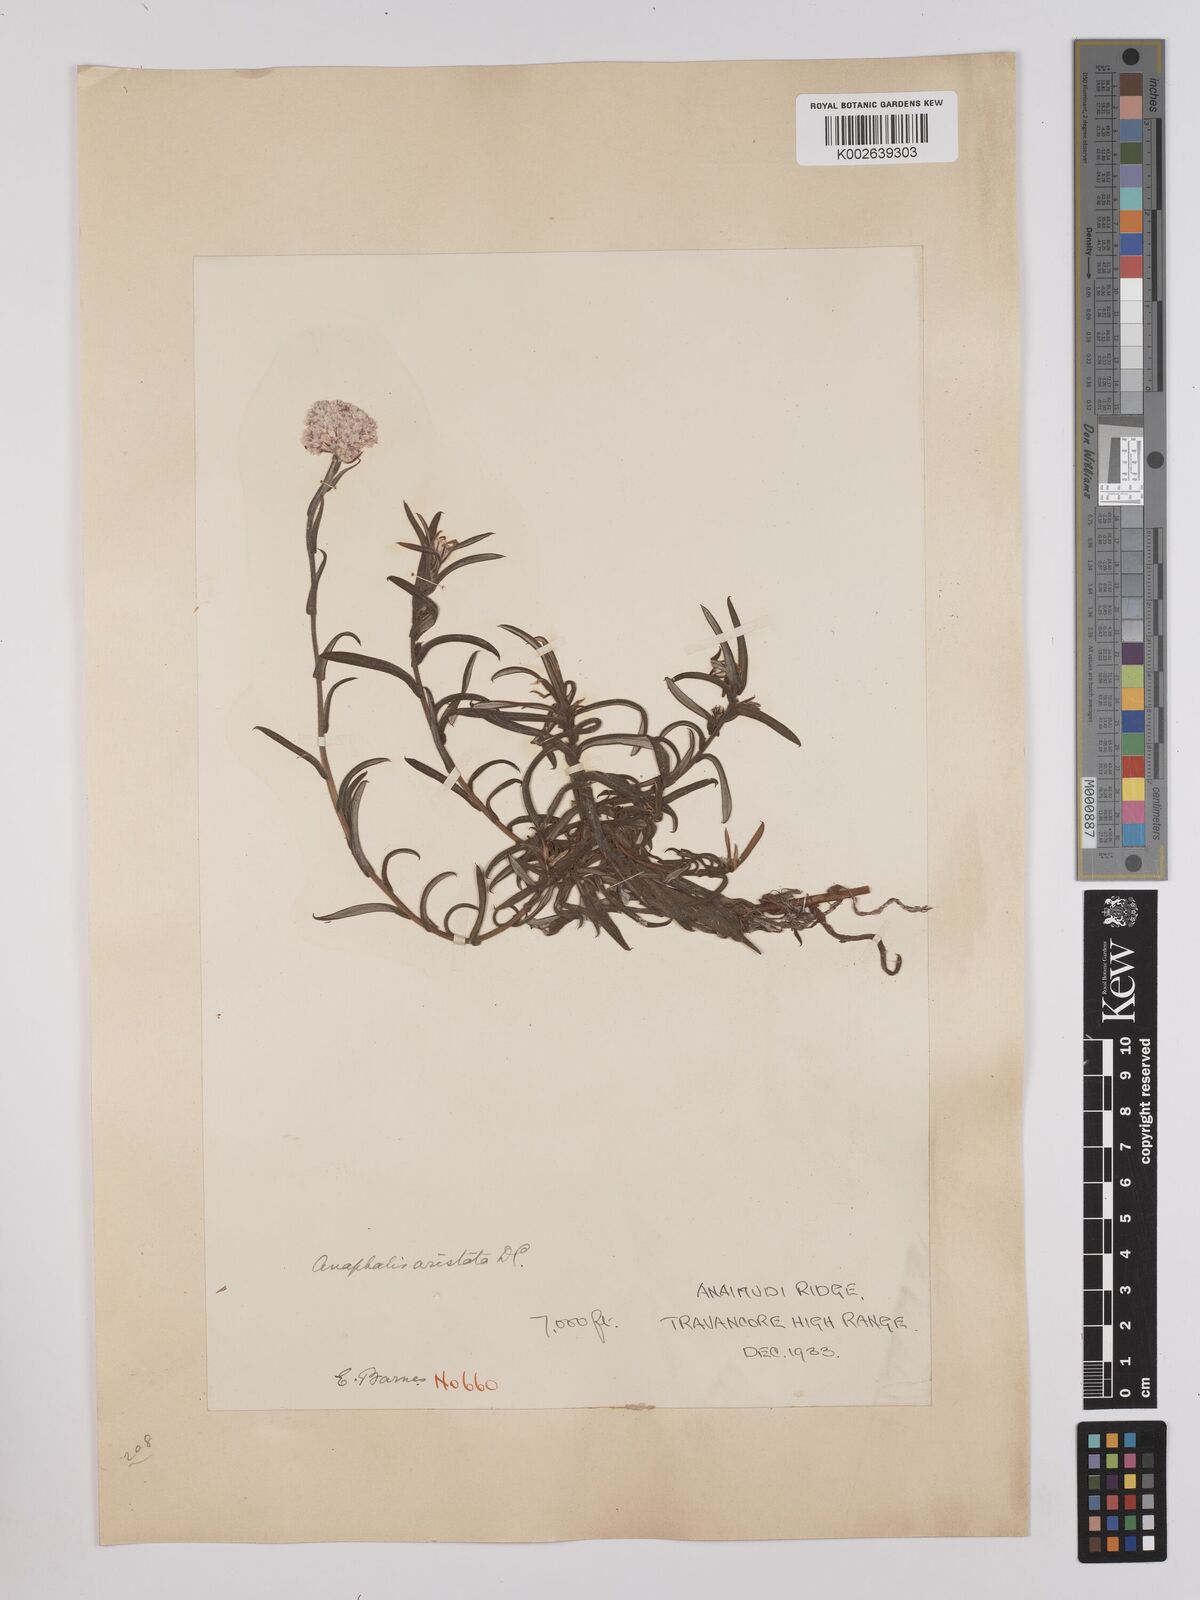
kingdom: Plantae
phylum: Tracheophyta
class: Magnoliopsida
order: Asterales
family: Asteraceae
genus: Anaphalis
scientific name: Anaphalis aristata
